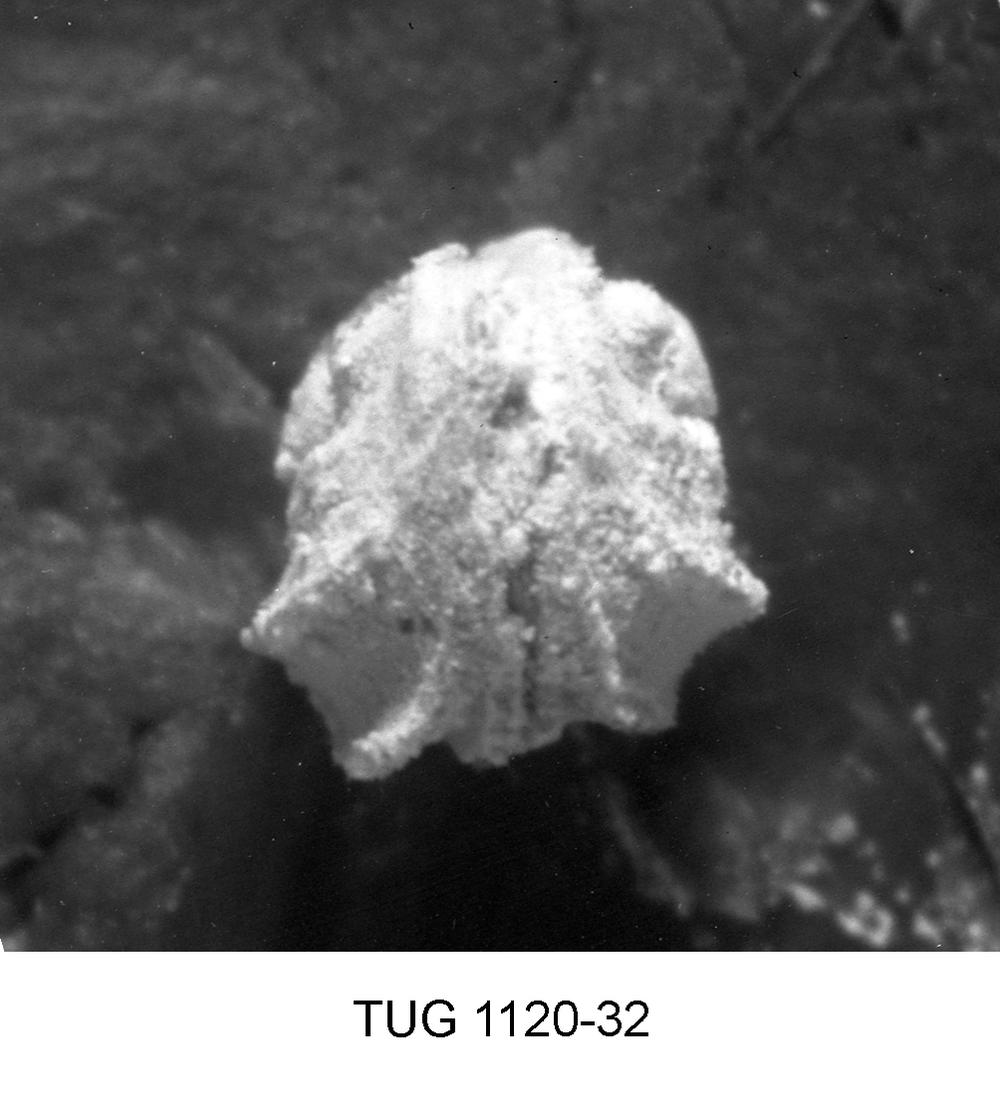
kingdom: Animalia
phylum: Arthropoda
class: Ostracoda
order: Palaeocopida
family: Drepanellidae
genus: Drepanella
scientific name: Drepanella
